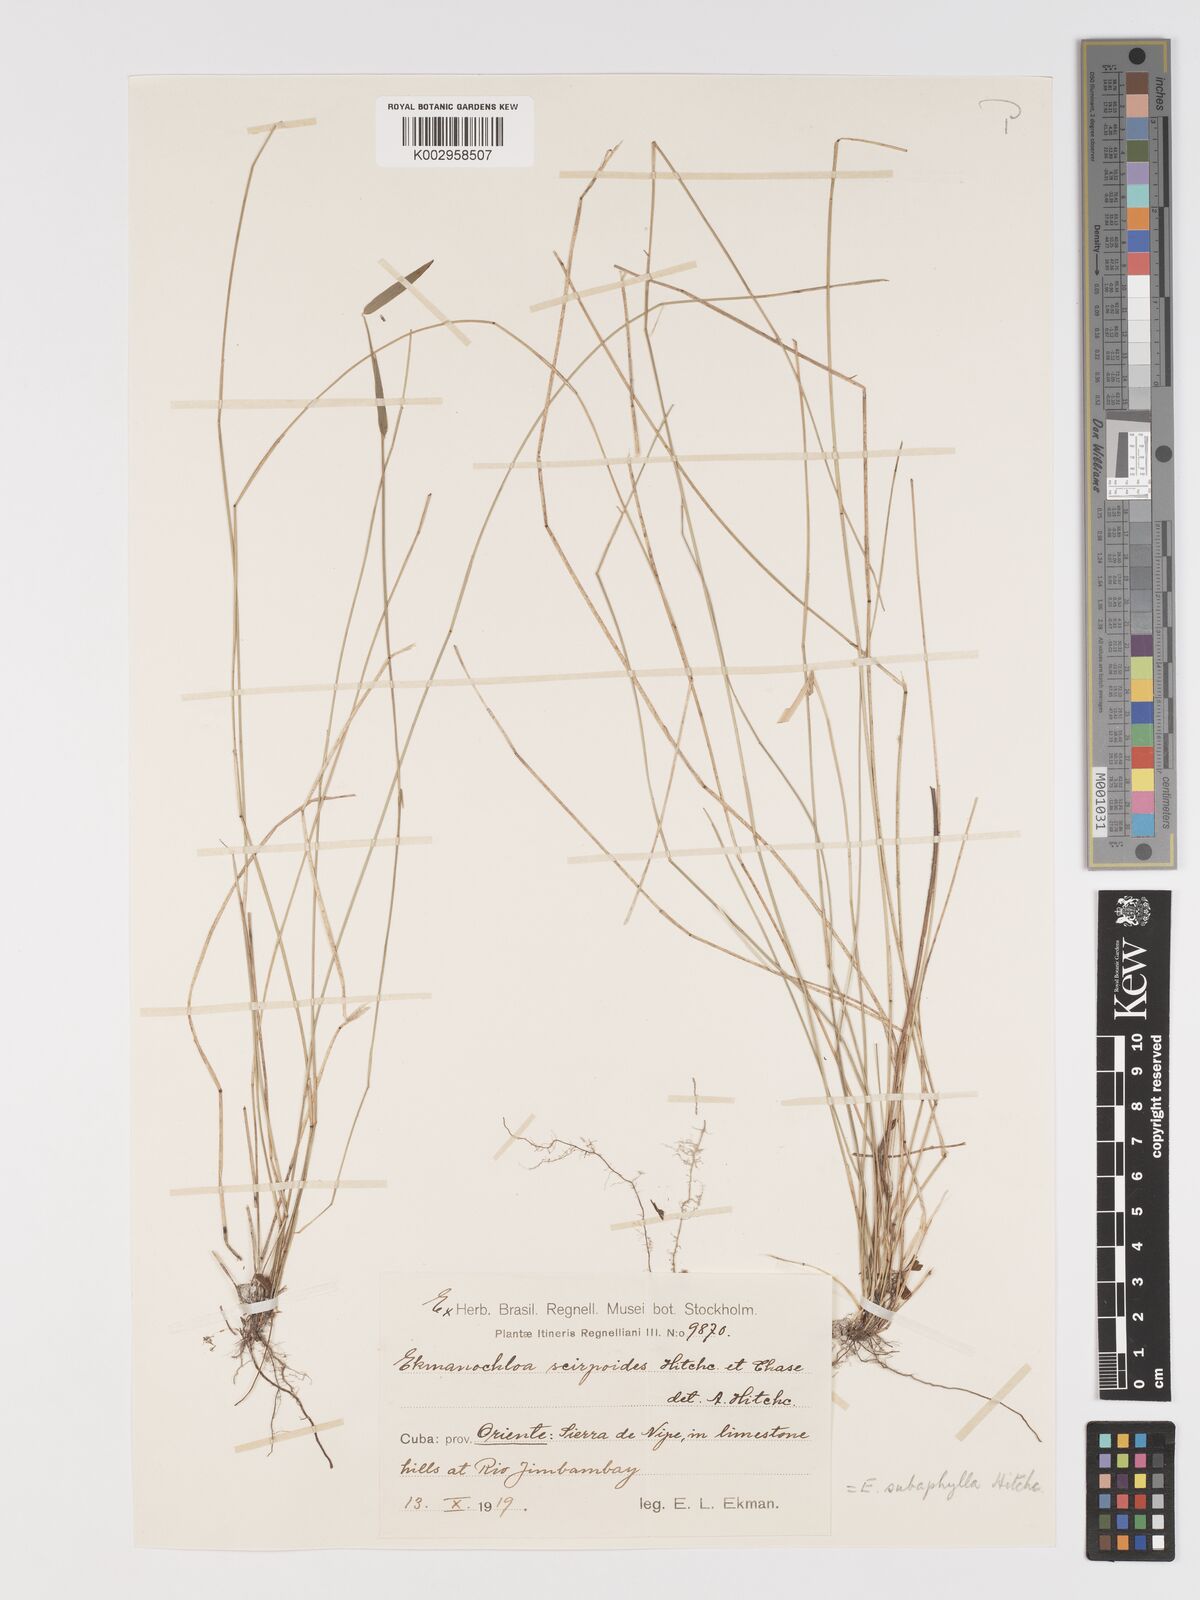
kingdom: Plantae
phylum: Tracheophyta
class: Liliopsida
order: Poales
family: Poaceae
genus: Ekmanochloa
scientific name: Ekmanochloa subaphylla
